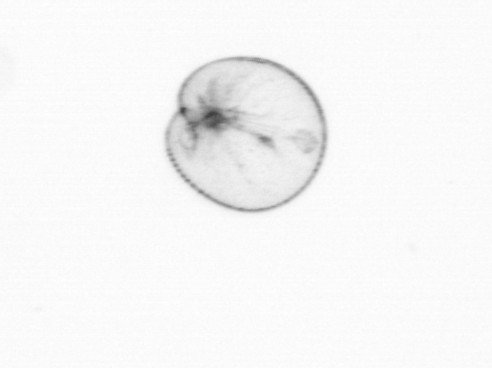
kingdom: Chromista
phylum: Myzozoa
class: Dinophyceae
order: Noctilucales
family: Noctilucaceae
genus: Noctiluca
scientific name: Noctiluca scintillans
